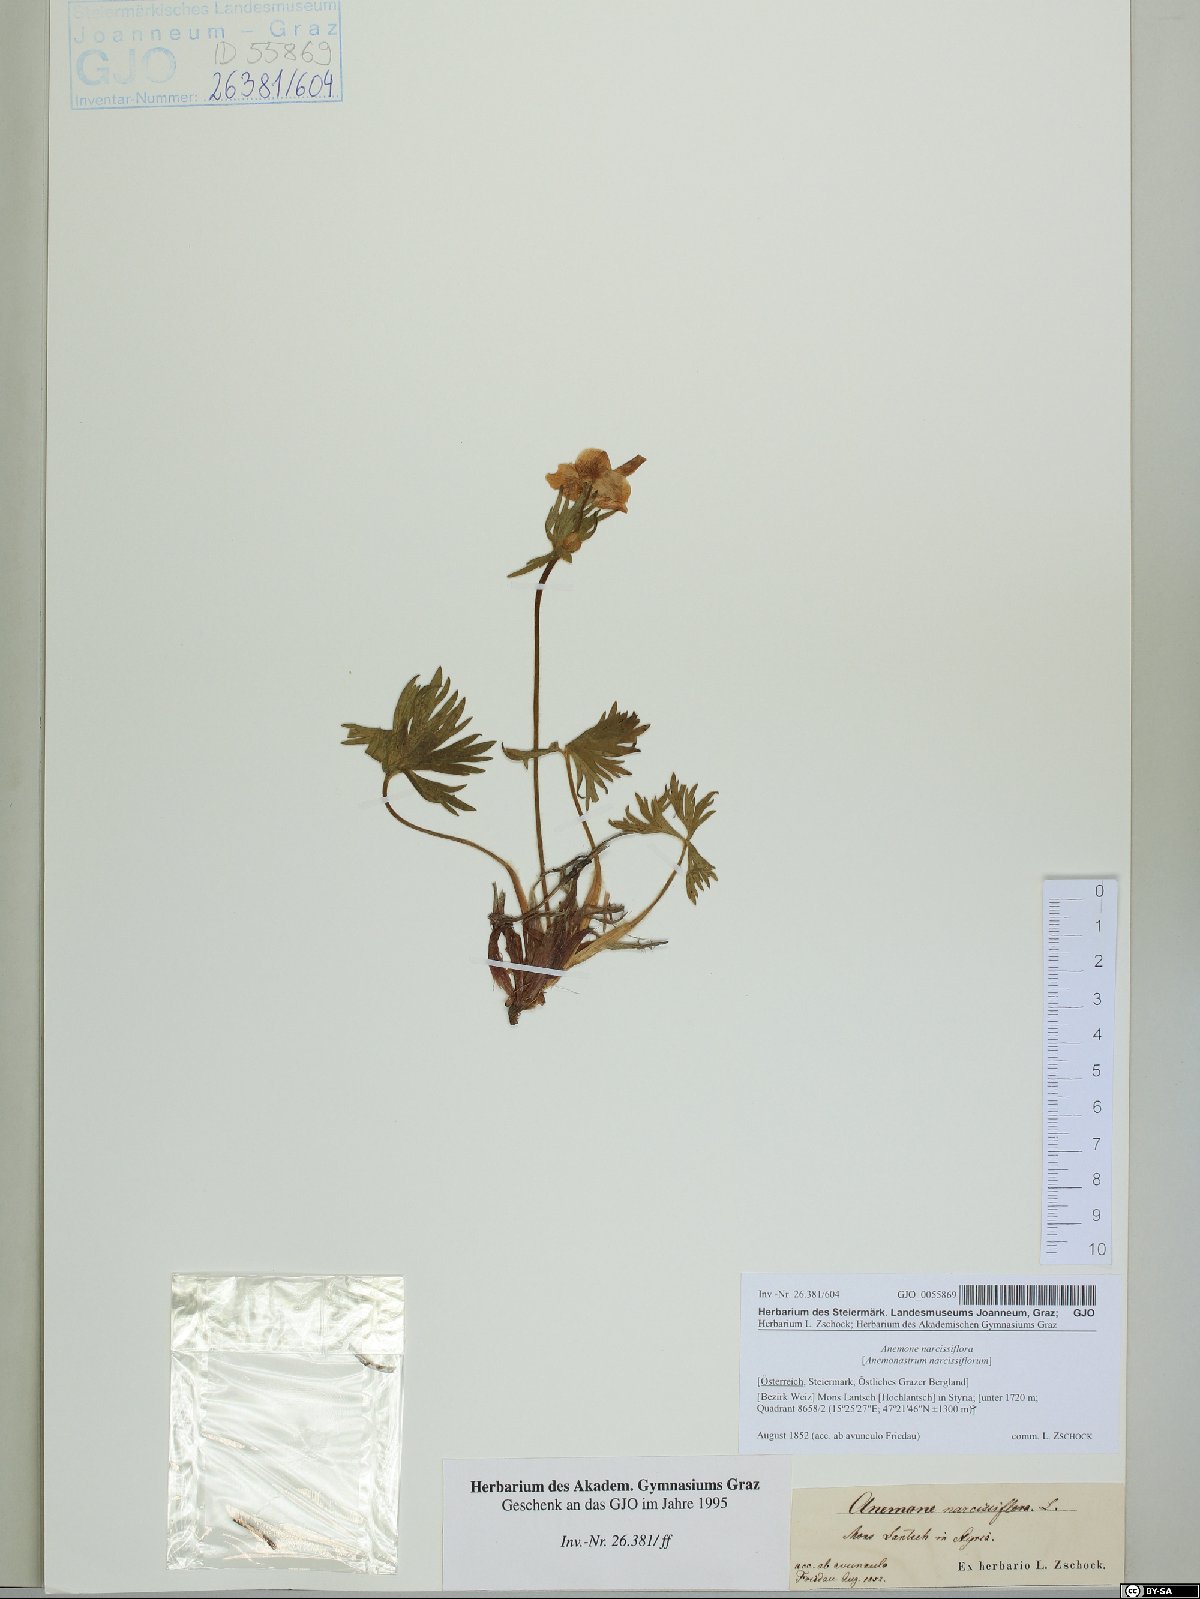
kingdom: Plantae
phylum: Tracheophyta
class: Magnoliopsida
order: Ranunculales
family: Ranunculaceae
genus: Anemonastrum
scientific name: Anemonastrum narcissiflorum
